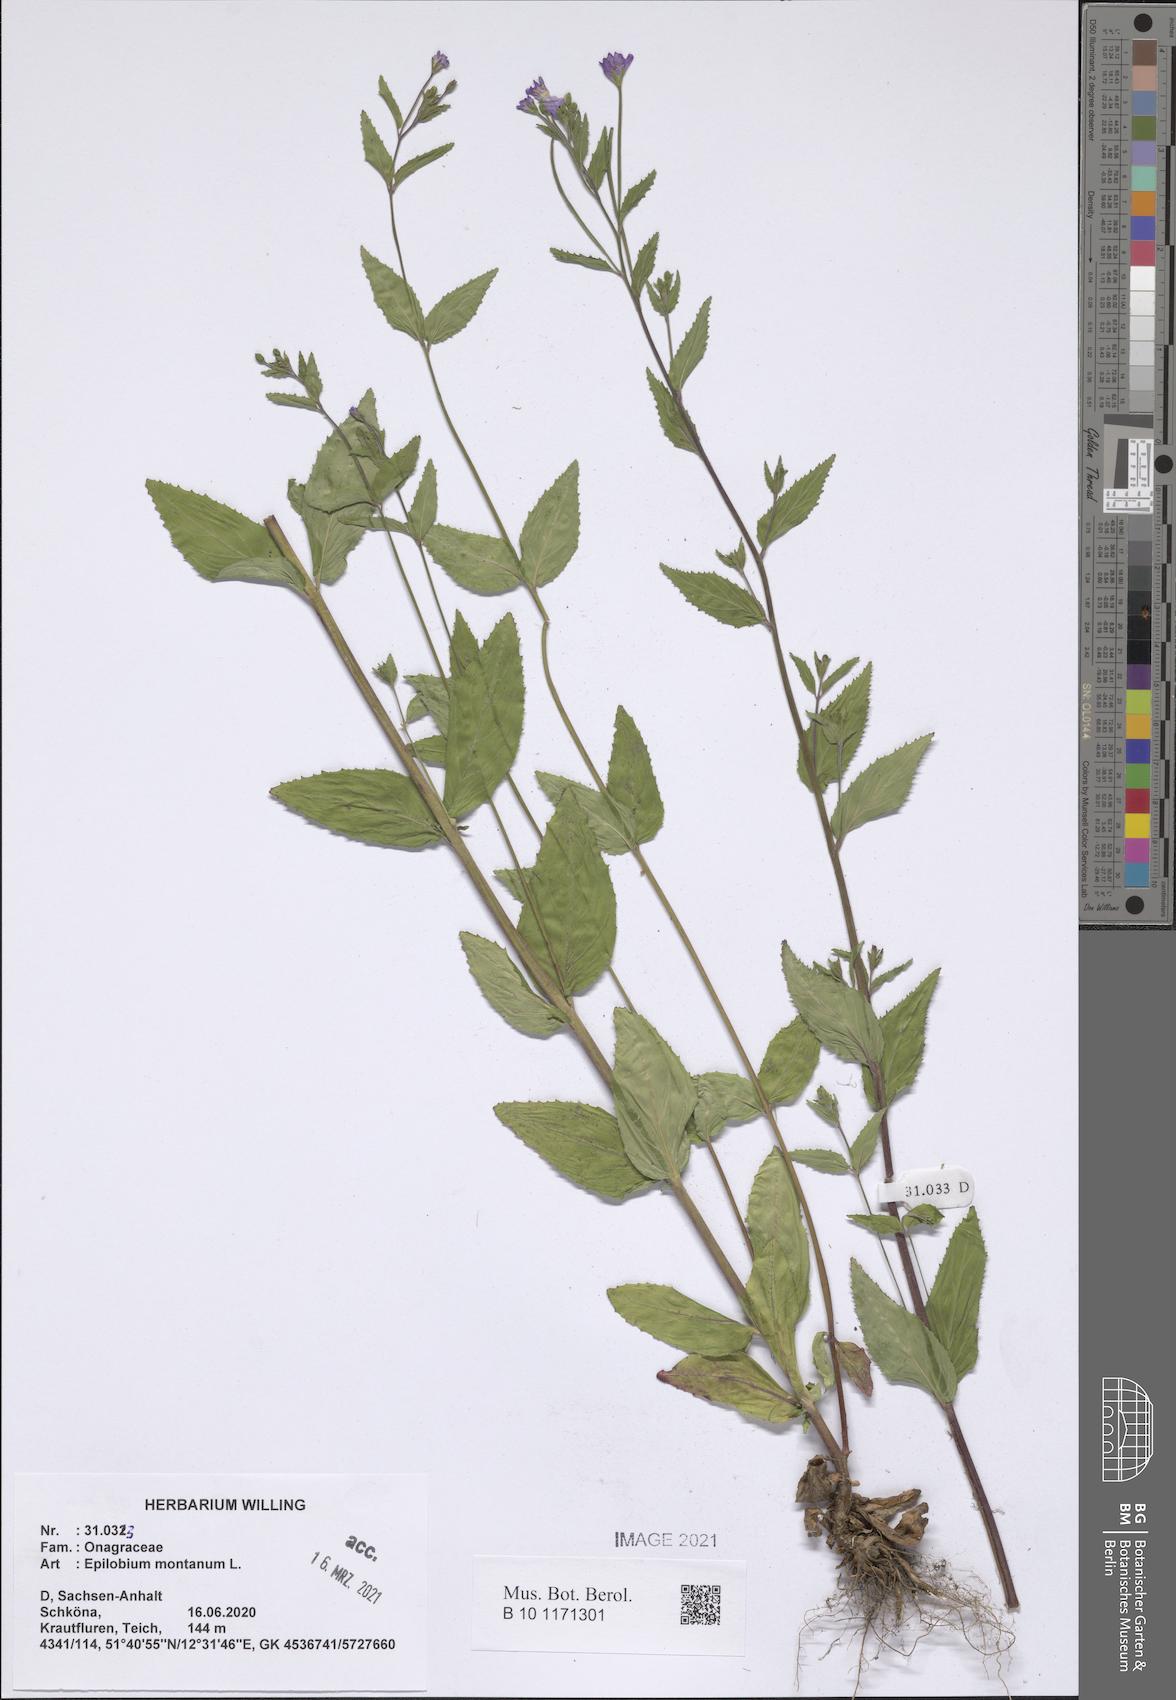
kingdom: Plantae
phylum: Tracheophyta
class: Magnoliopsida
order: Myrtales
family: Onagraceae
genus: Epilobium
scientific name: Epilobium montanum
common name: Broad-leaved willowherb
